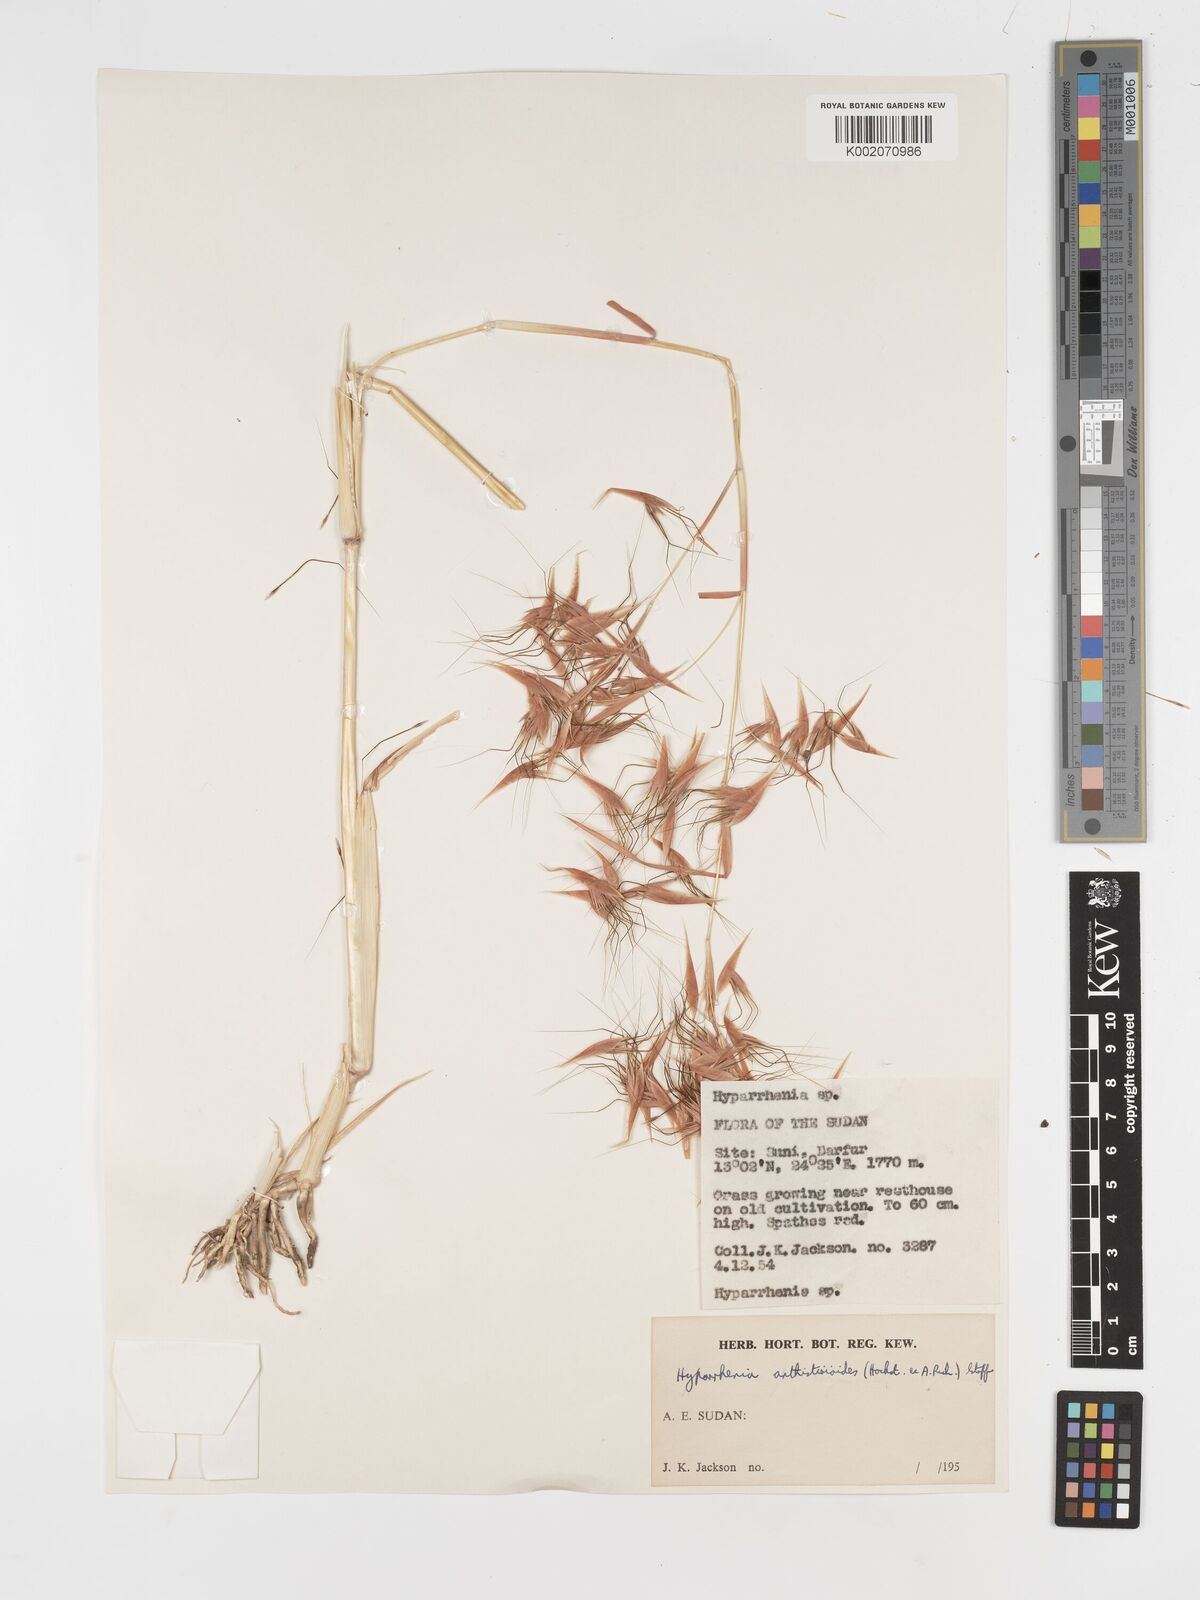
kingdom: Plantae
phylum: Tracheophyta
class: Liliopsida
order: Poales
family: Poaceae
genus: Hyparrhenia
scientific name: Hyparrhenia anthistirioides
